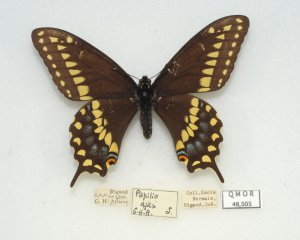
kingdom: Animalia
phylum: Arthropoda
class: Insecta
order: Lepidoptera
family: Papilionidae
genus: Papilio
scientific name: Papilio polyxenes
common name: Black Swallowtail
